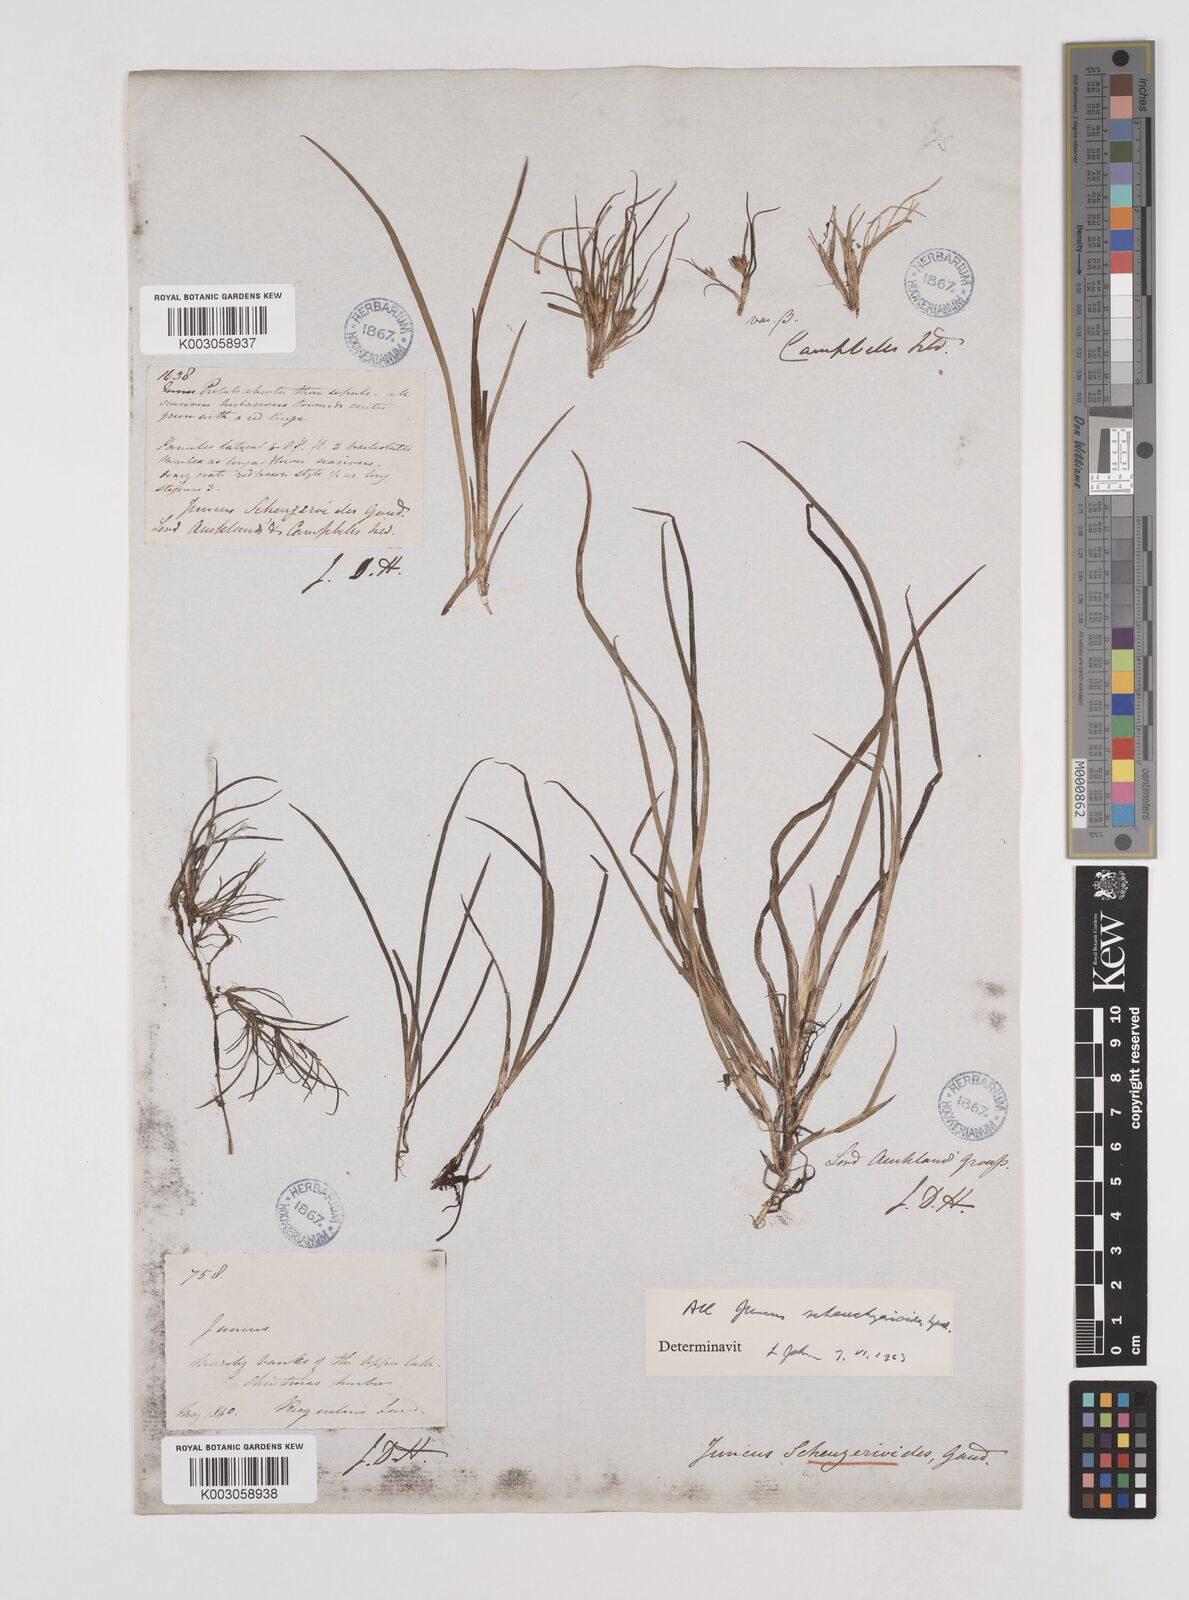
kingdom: Plantae
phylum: Tracheophyta
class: Liliopsida
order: Poales
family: Juncaceae
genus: Juncus
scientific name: Juncus scheuchzerioides
